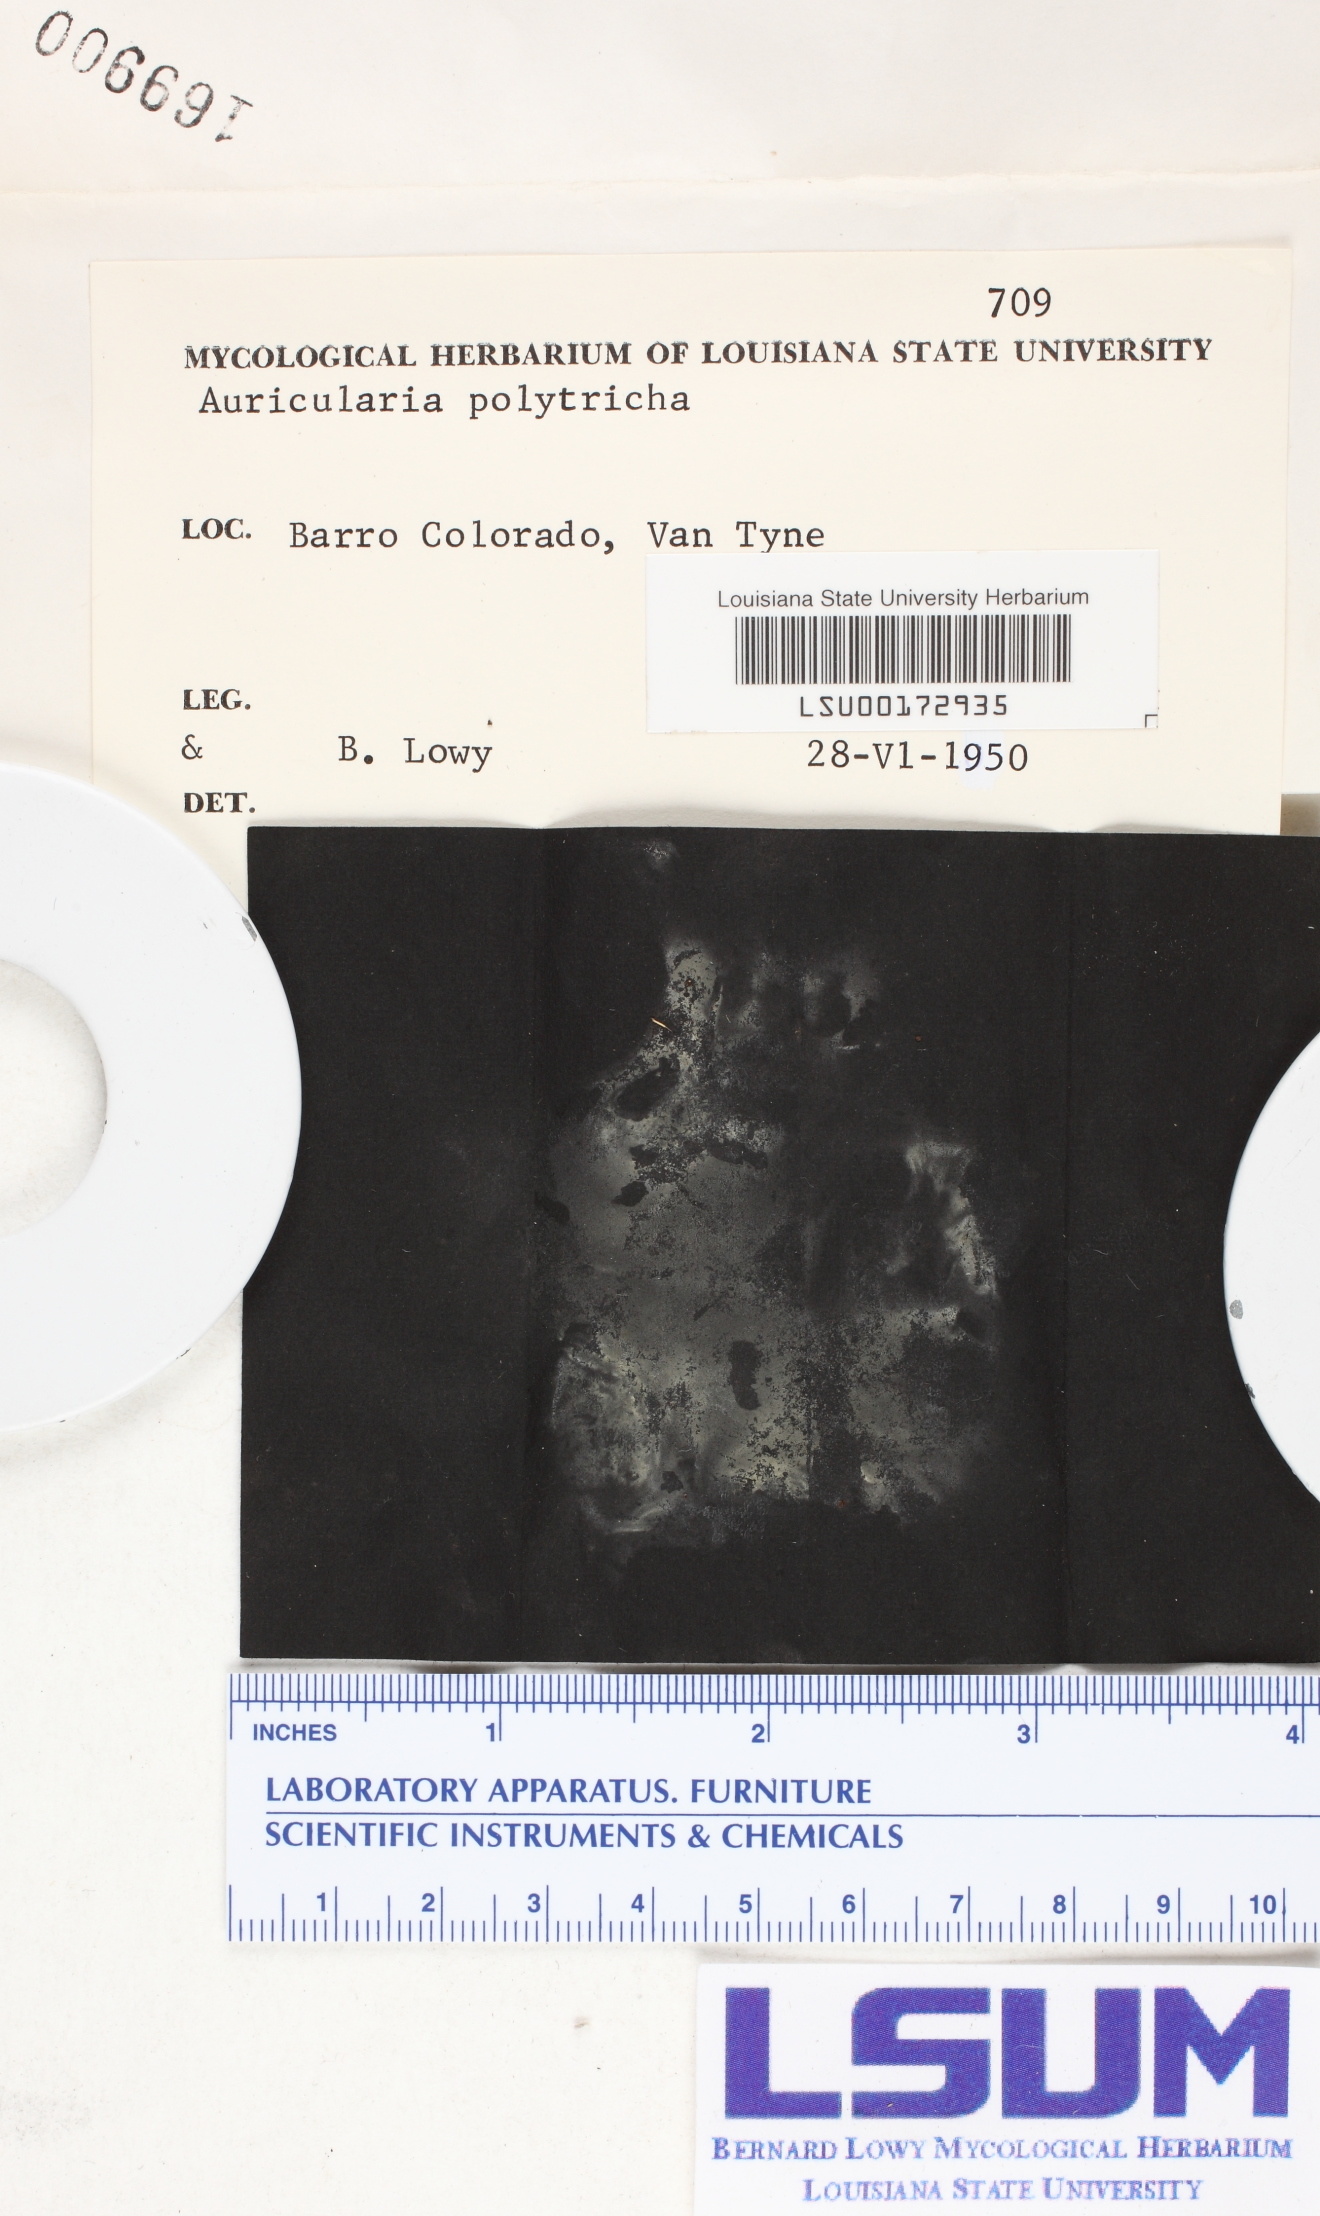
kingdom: Fungi
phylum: Basidiomycota
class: Agaricomycetes
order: Auriculariales
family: Auriculariaceae
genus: Auricularia
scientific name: Auricularia nigricans
